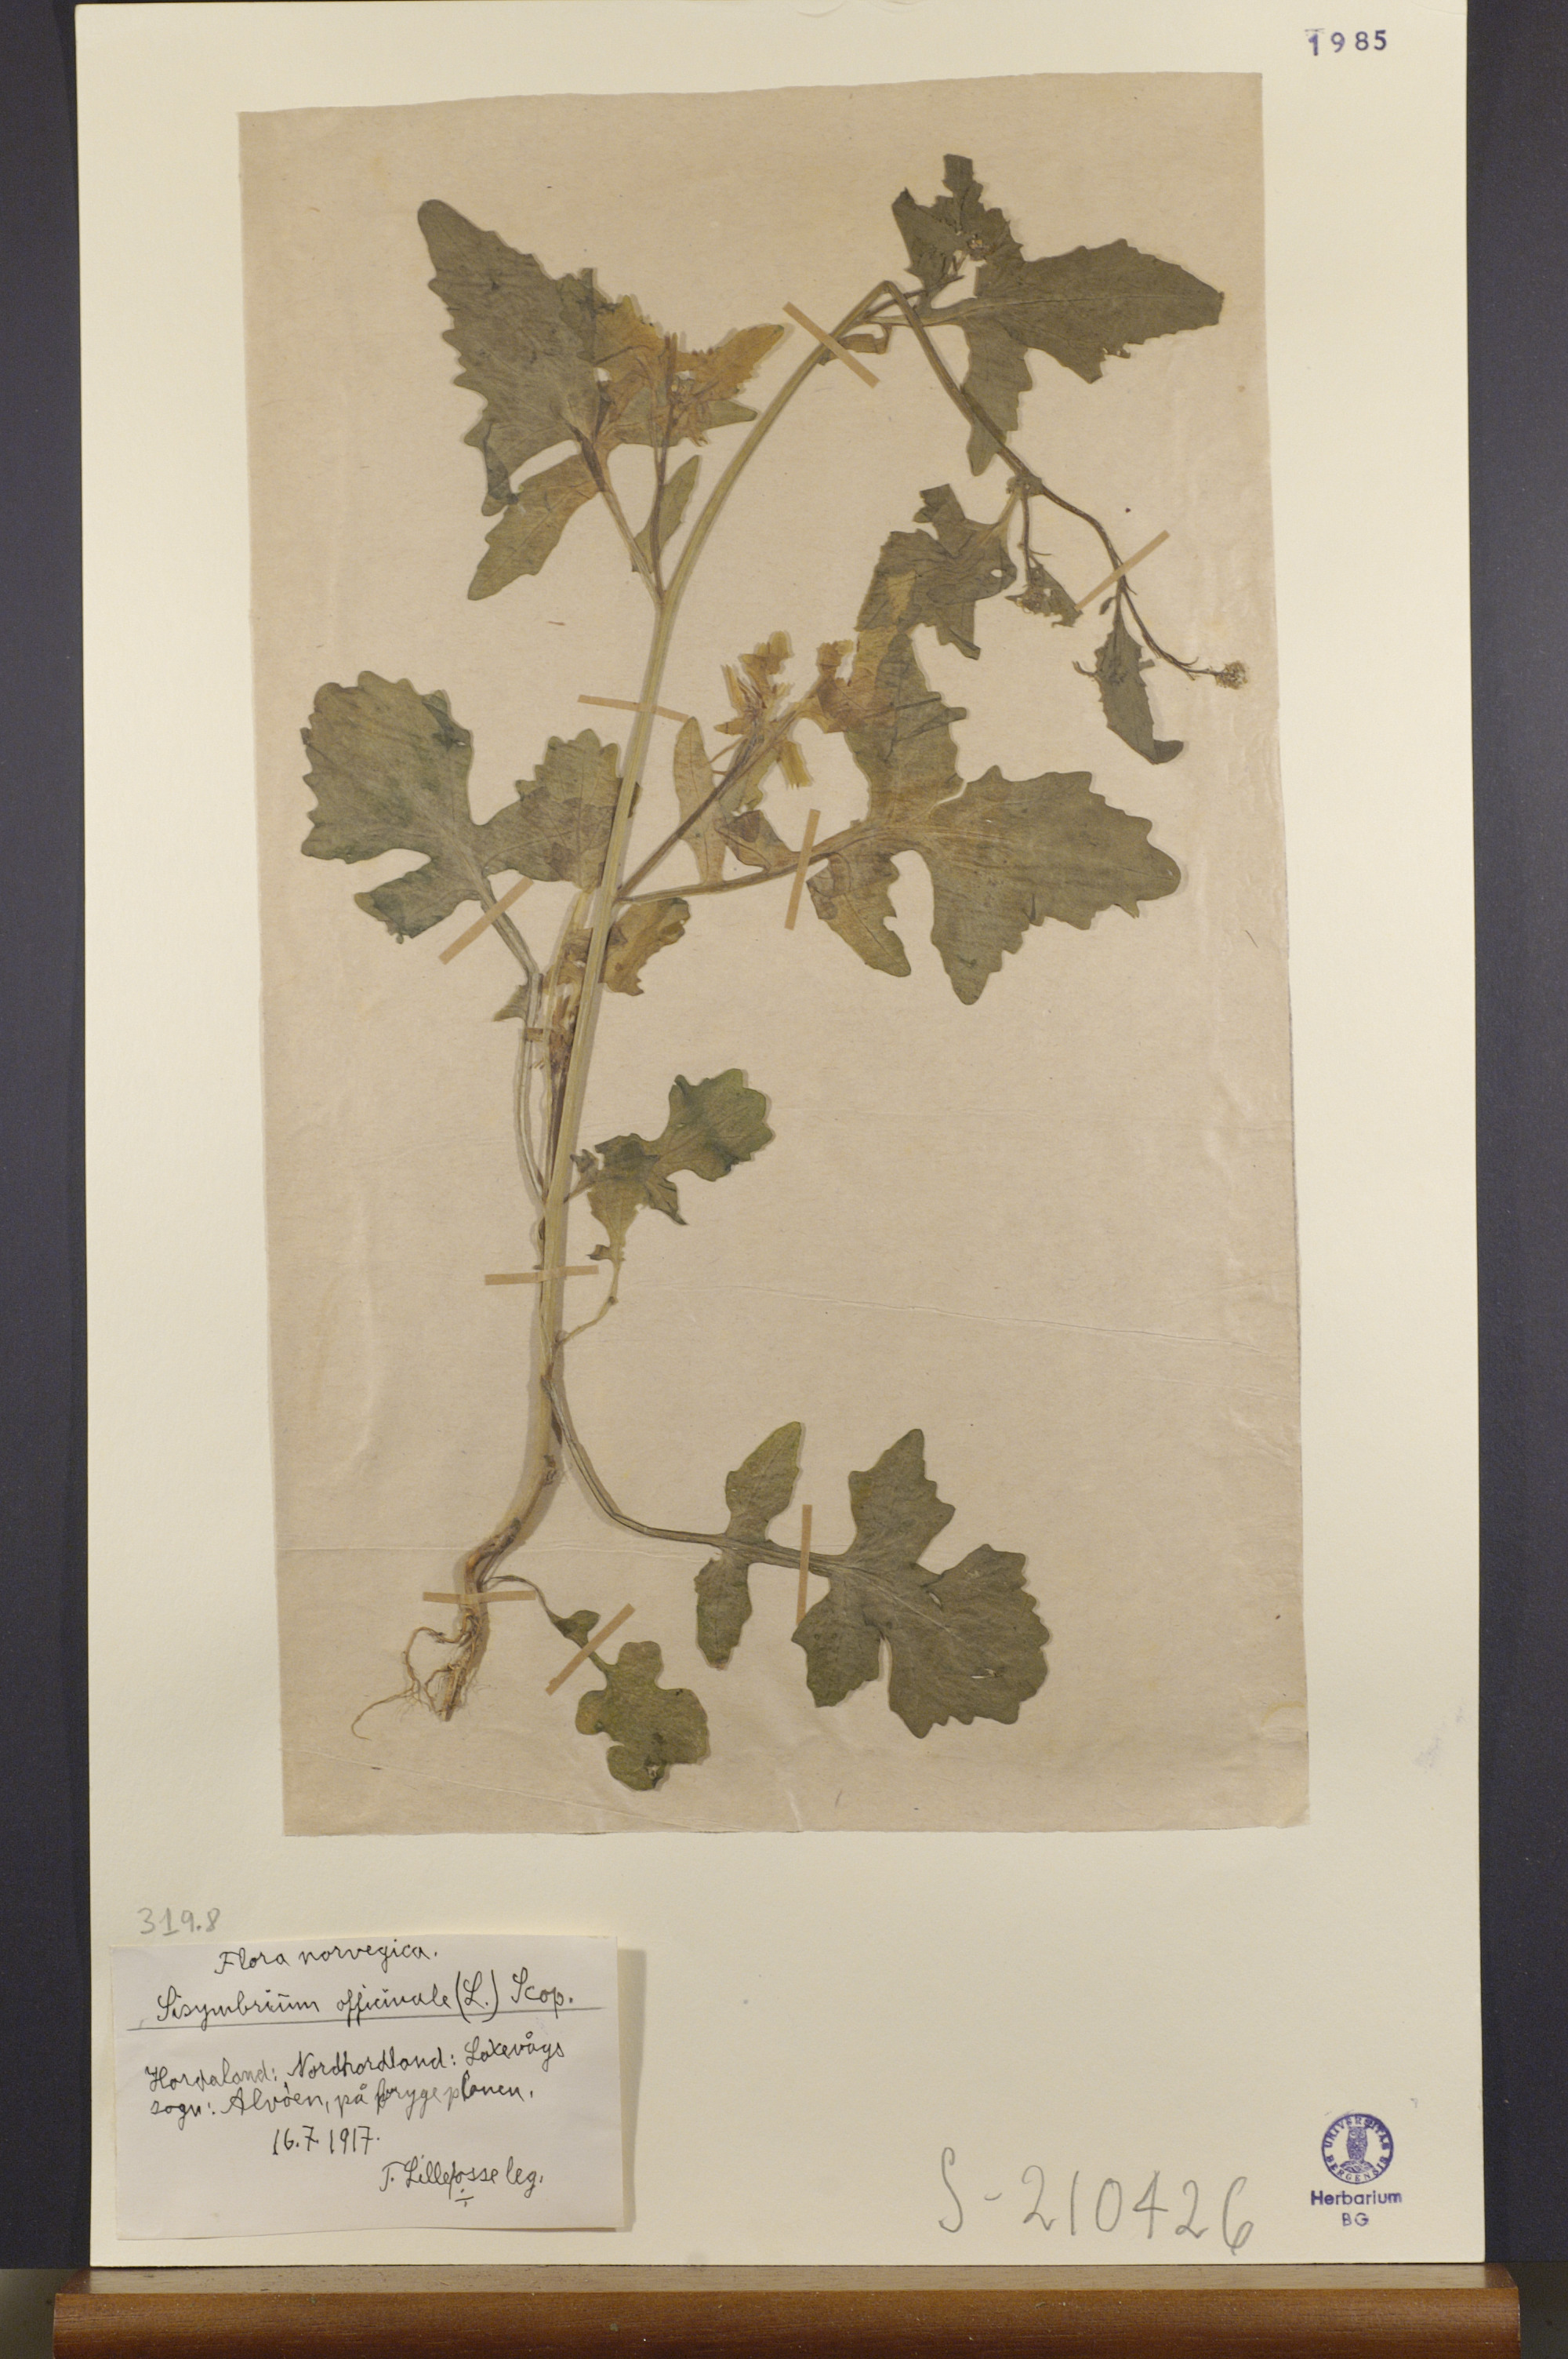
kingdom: Plantae
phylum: Tracheophyta
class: Magnoliopsida
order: Brassicales
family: Brassicaceae
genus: Sisymbrium
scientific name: Sisymbrium officinale
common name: Hedge mustard
